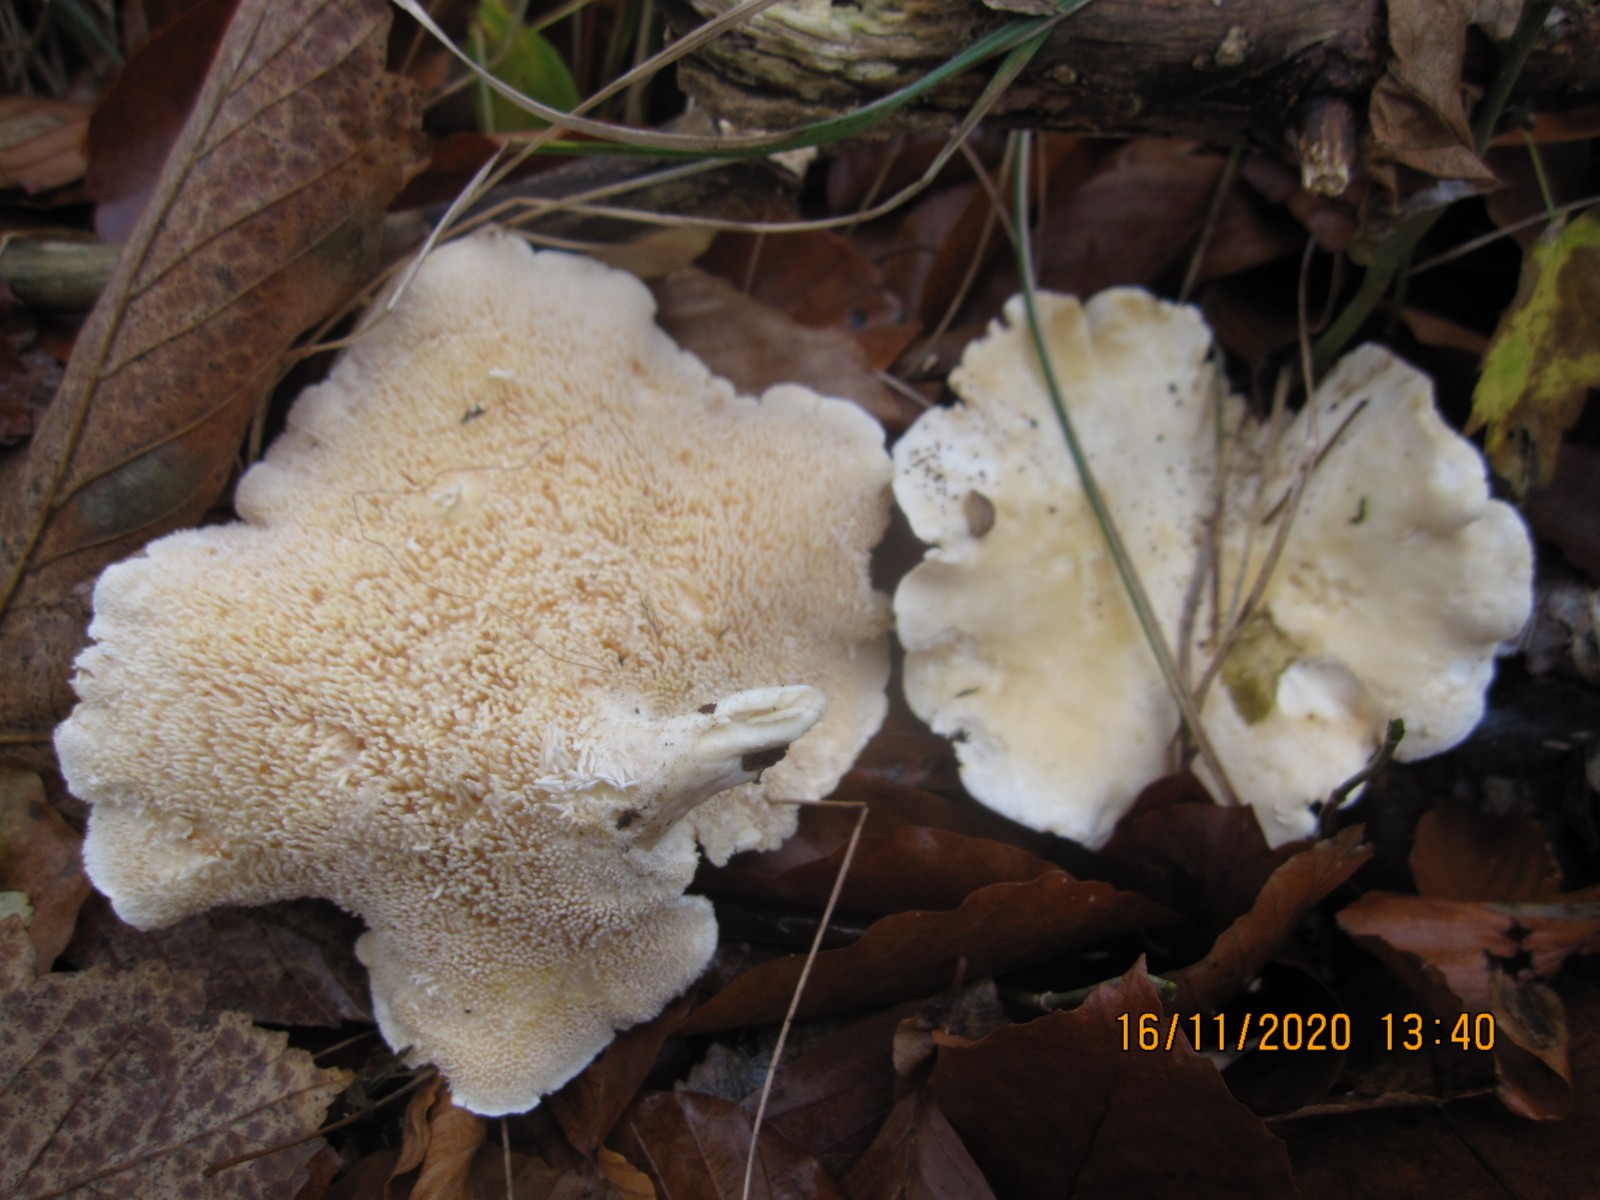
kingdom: Fungi
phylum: Basidiomycota
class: Agaricomycetes
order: Cantharellales
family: Hydnaceae
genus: Hydnum
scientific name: Hydnum repandum
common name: almindelig pigsvamp
